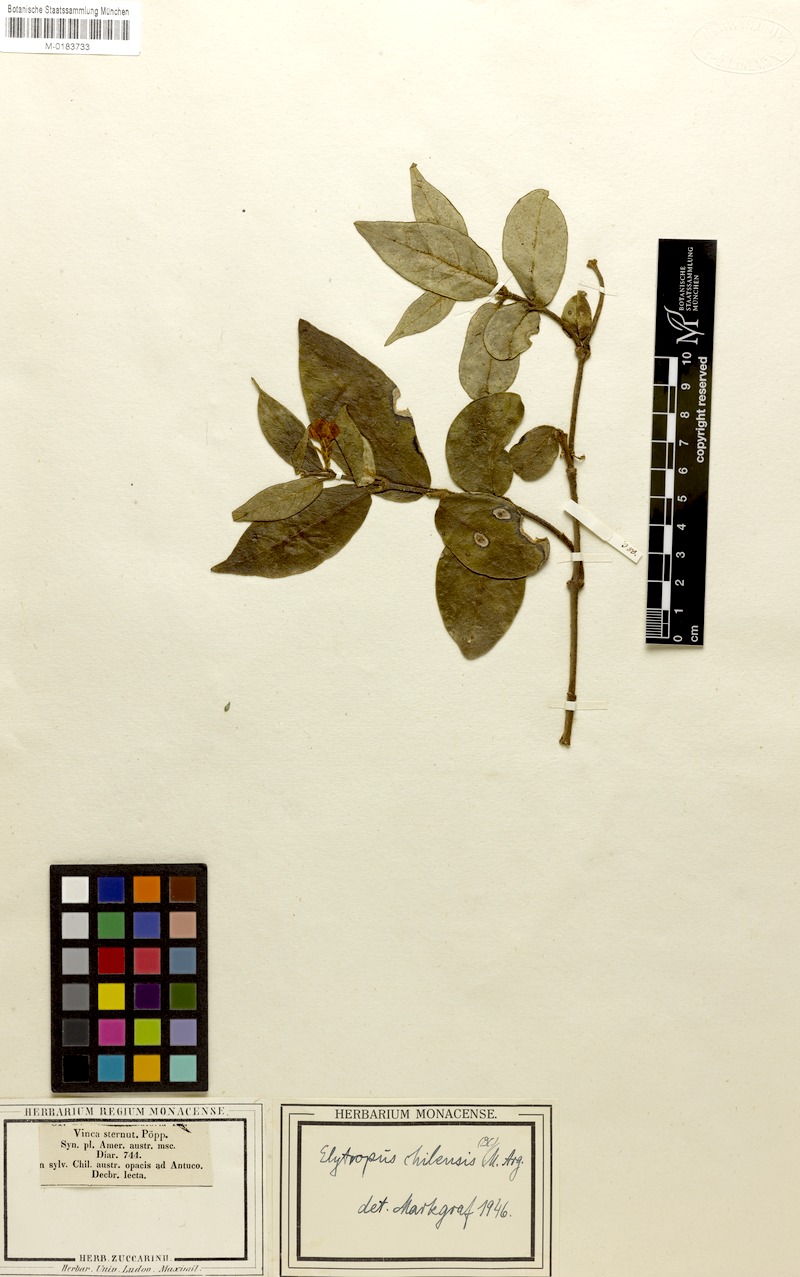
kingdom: Plantae
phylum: Tracheophyta
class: Magnoliopsida
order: Gentianales
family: Apocynaceae
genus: Mandevilla
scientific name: Mandevilla pubescens
